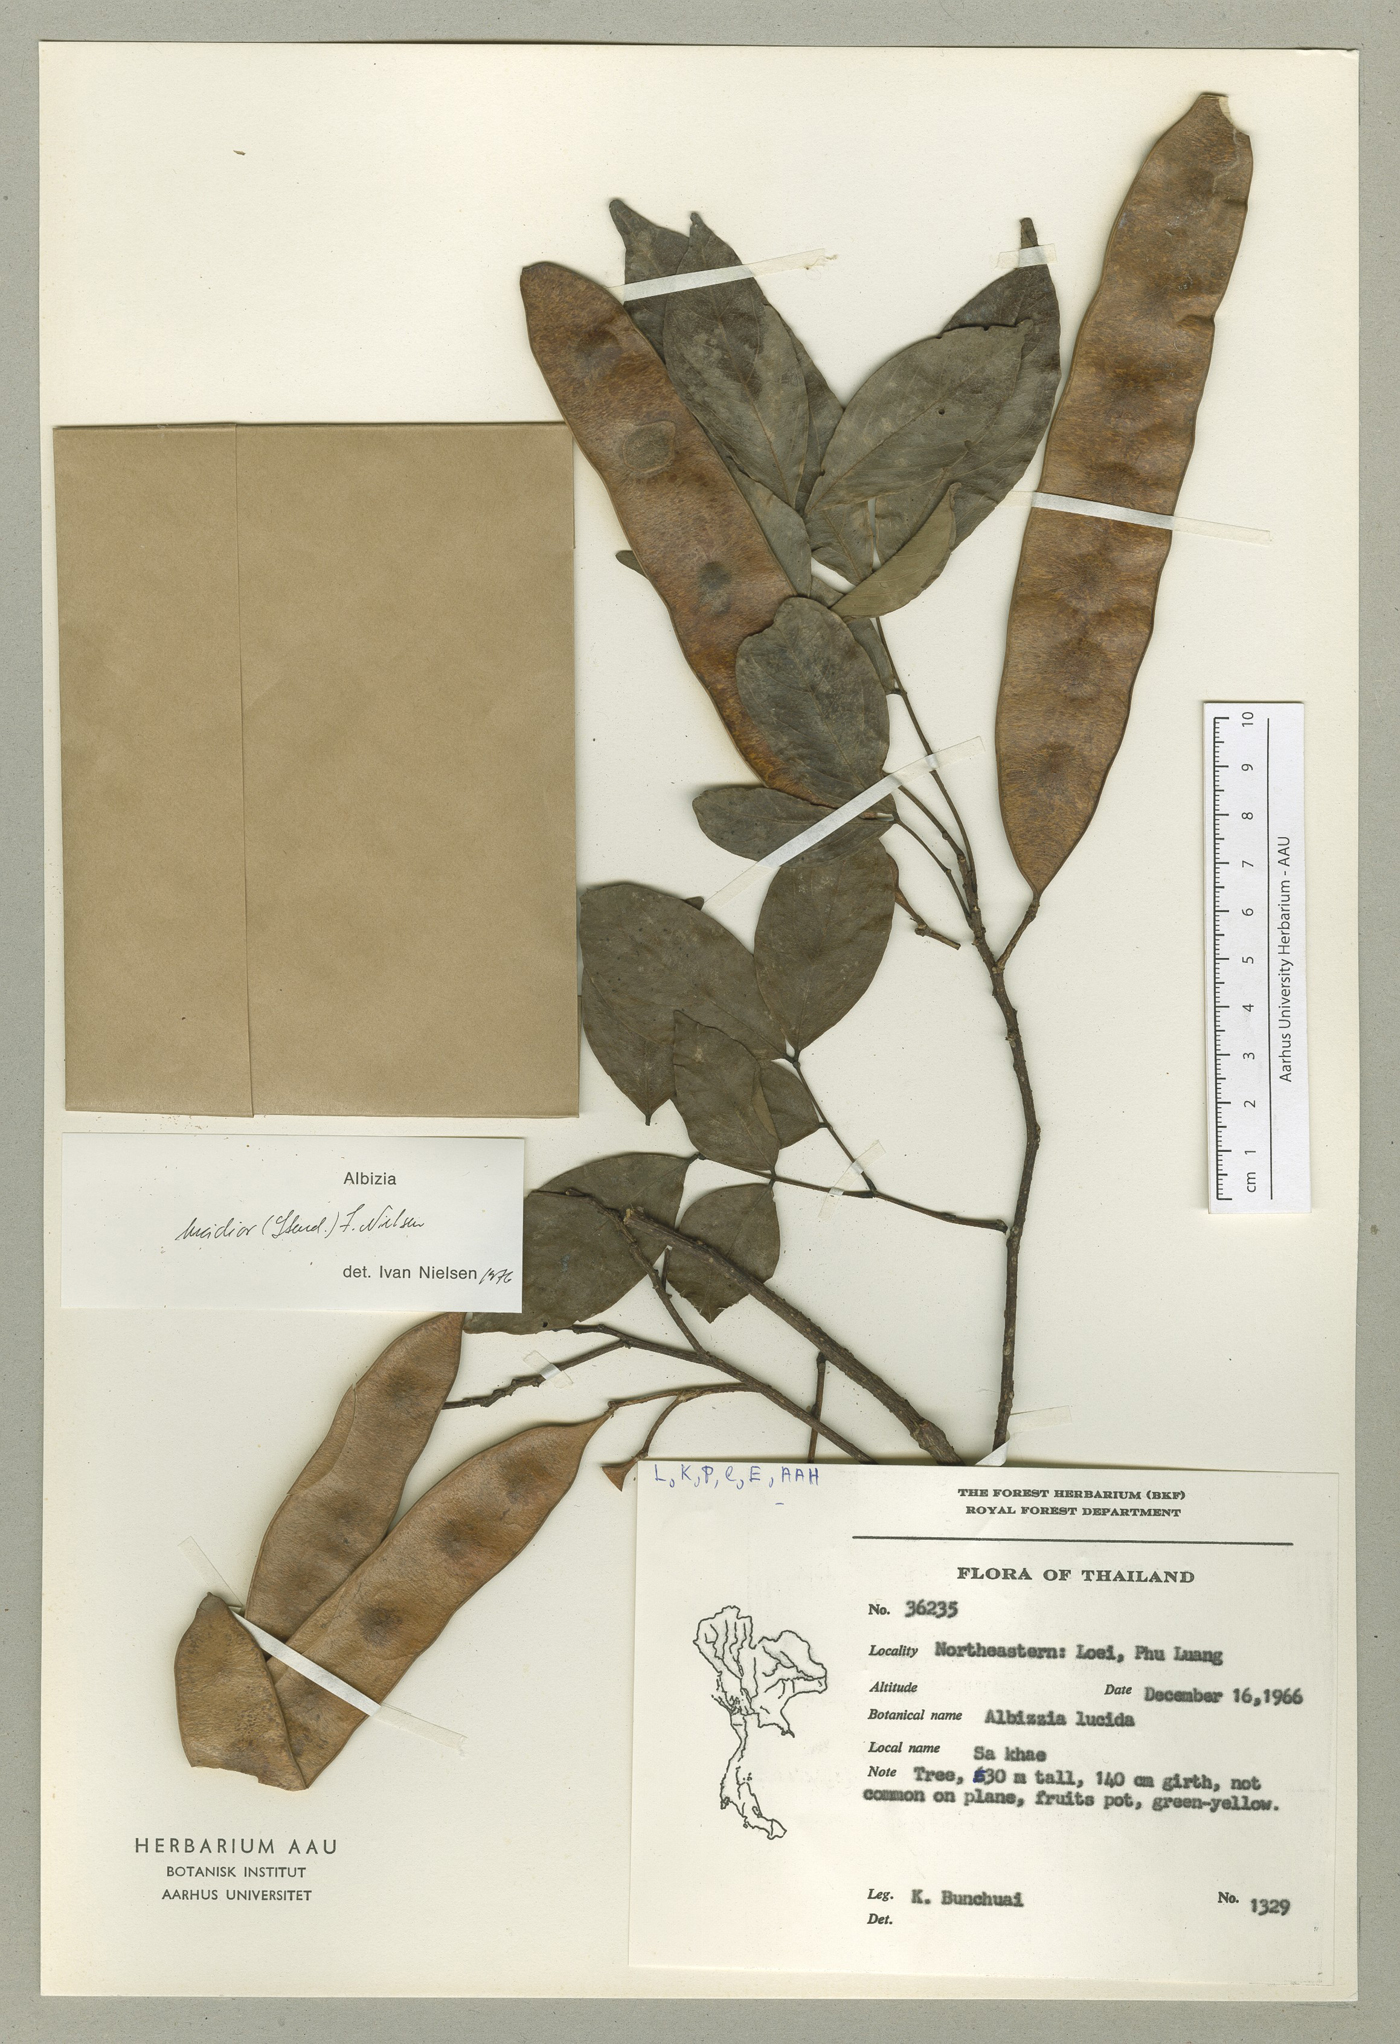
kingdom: Plantae
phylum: Tracheophyta
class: Magnoliopsida
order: Fabales
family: Fabaceae
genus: Albizia
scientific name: Albizia lucidior
